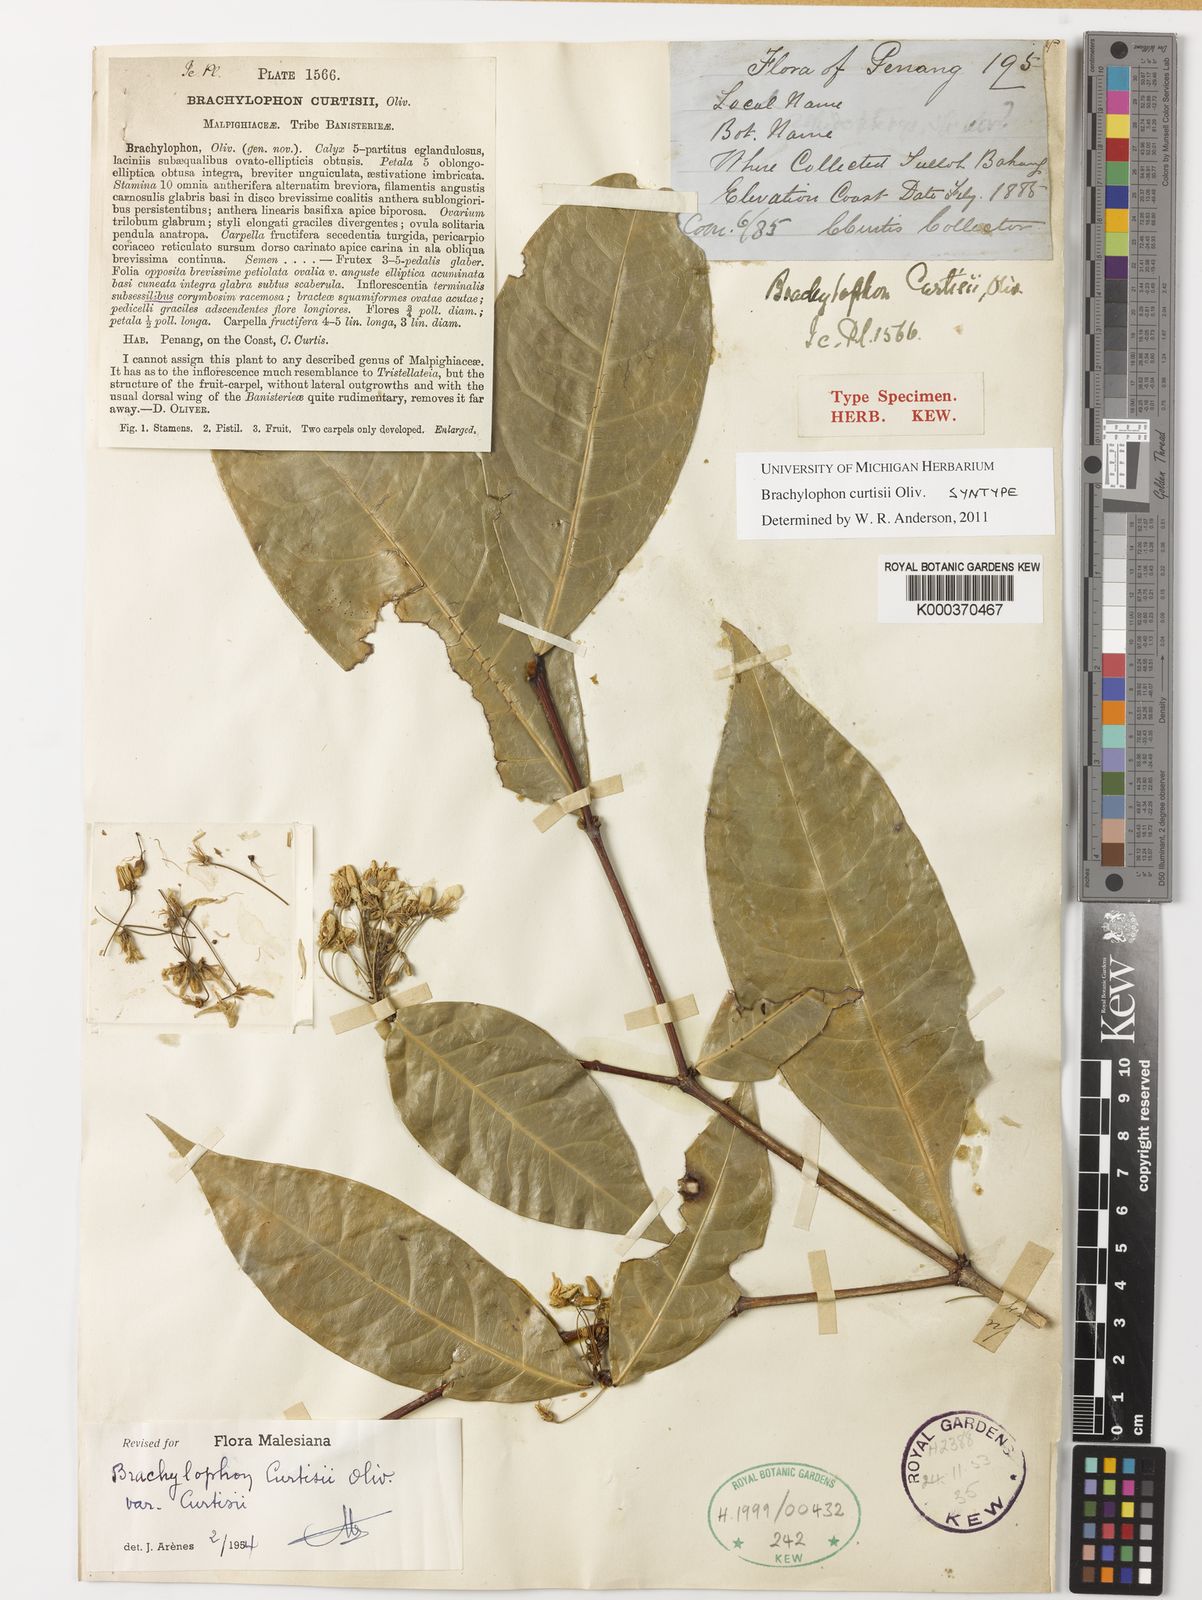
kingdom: Plantae
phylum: Tracheophyta
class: Magnoliopsida
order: Malpighiales
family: Malpighiaceae
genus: Brachylophon
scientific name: Brachylophon curtisii
